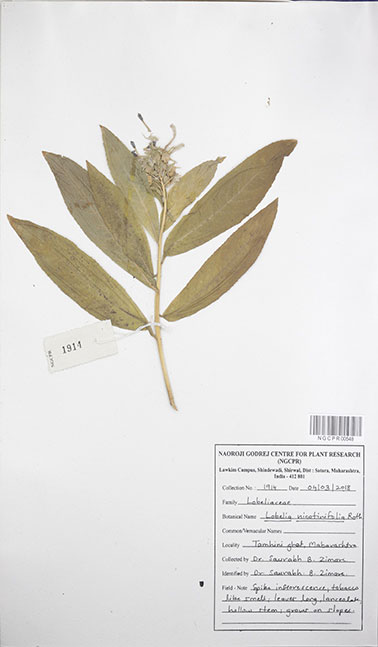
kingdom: Plantae
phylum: Tracheophyta
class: Magnoliopsida
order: Asterales
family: Campanulaceae
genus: Lobelia
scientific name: Lobelia nicotianifolia
